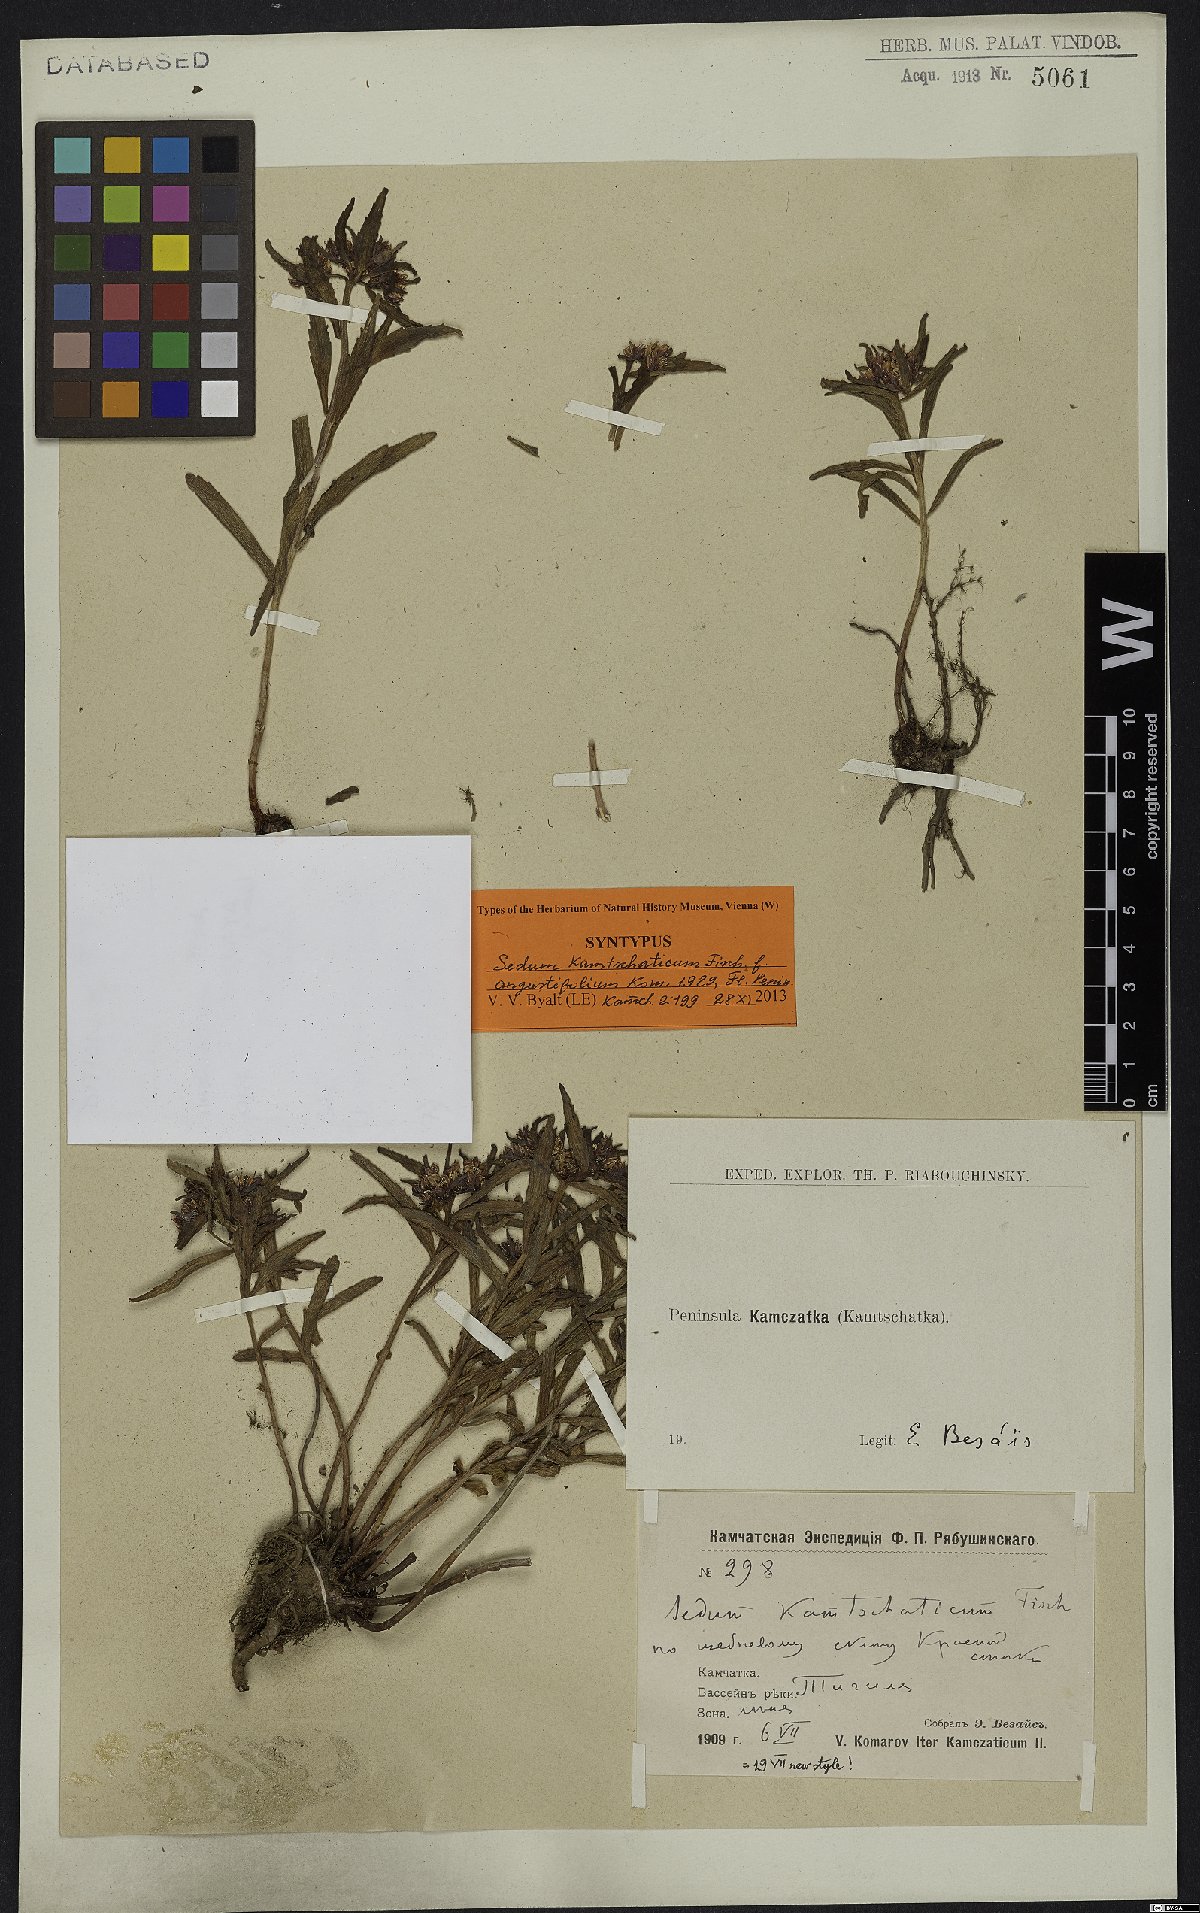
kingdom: Plantae
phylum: Tracheophyta
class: Magnoliopsida
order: Saxifragales
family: Crassulaceae
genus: Phedimus
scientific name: Phedimus kamtschaticus
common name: Orange stonecrop
